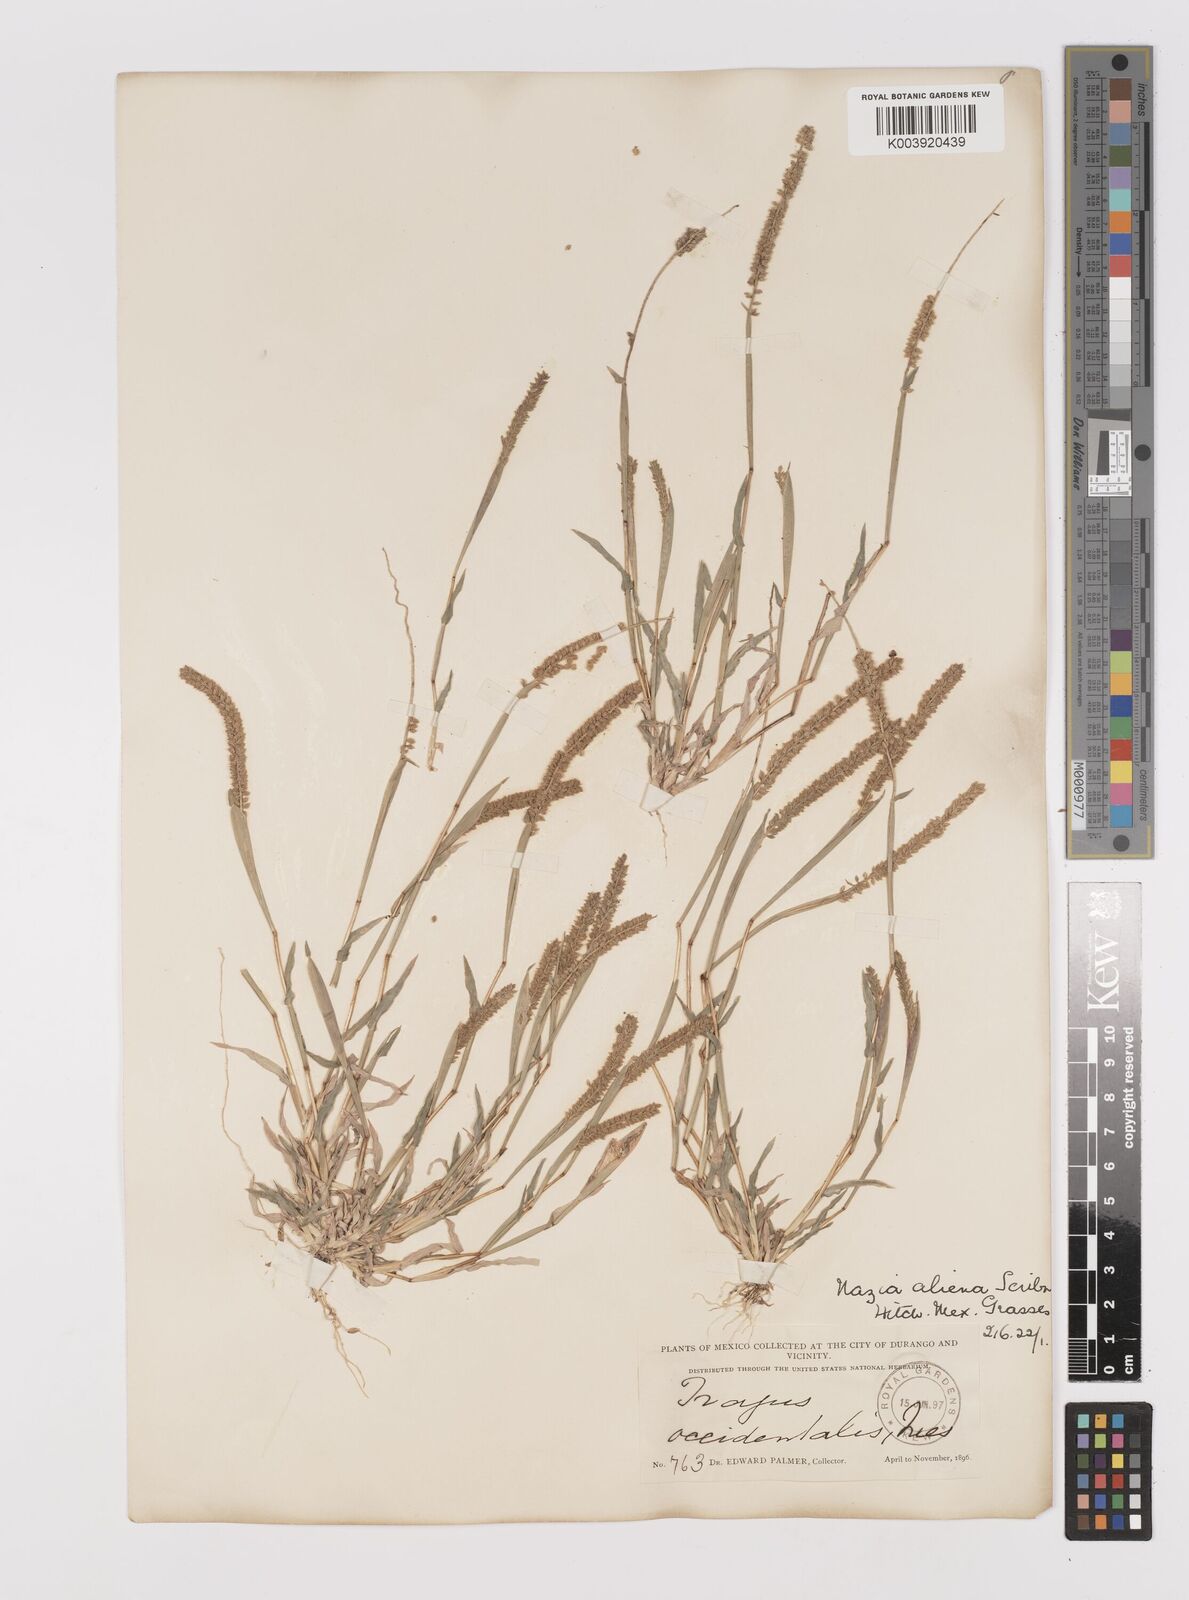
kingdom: Plantae
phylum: Tracheophyta
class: Liliopsida
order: Poales
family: Poaceae
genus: Tragus
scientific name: Tragus berteronianus
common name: African bur-grass
